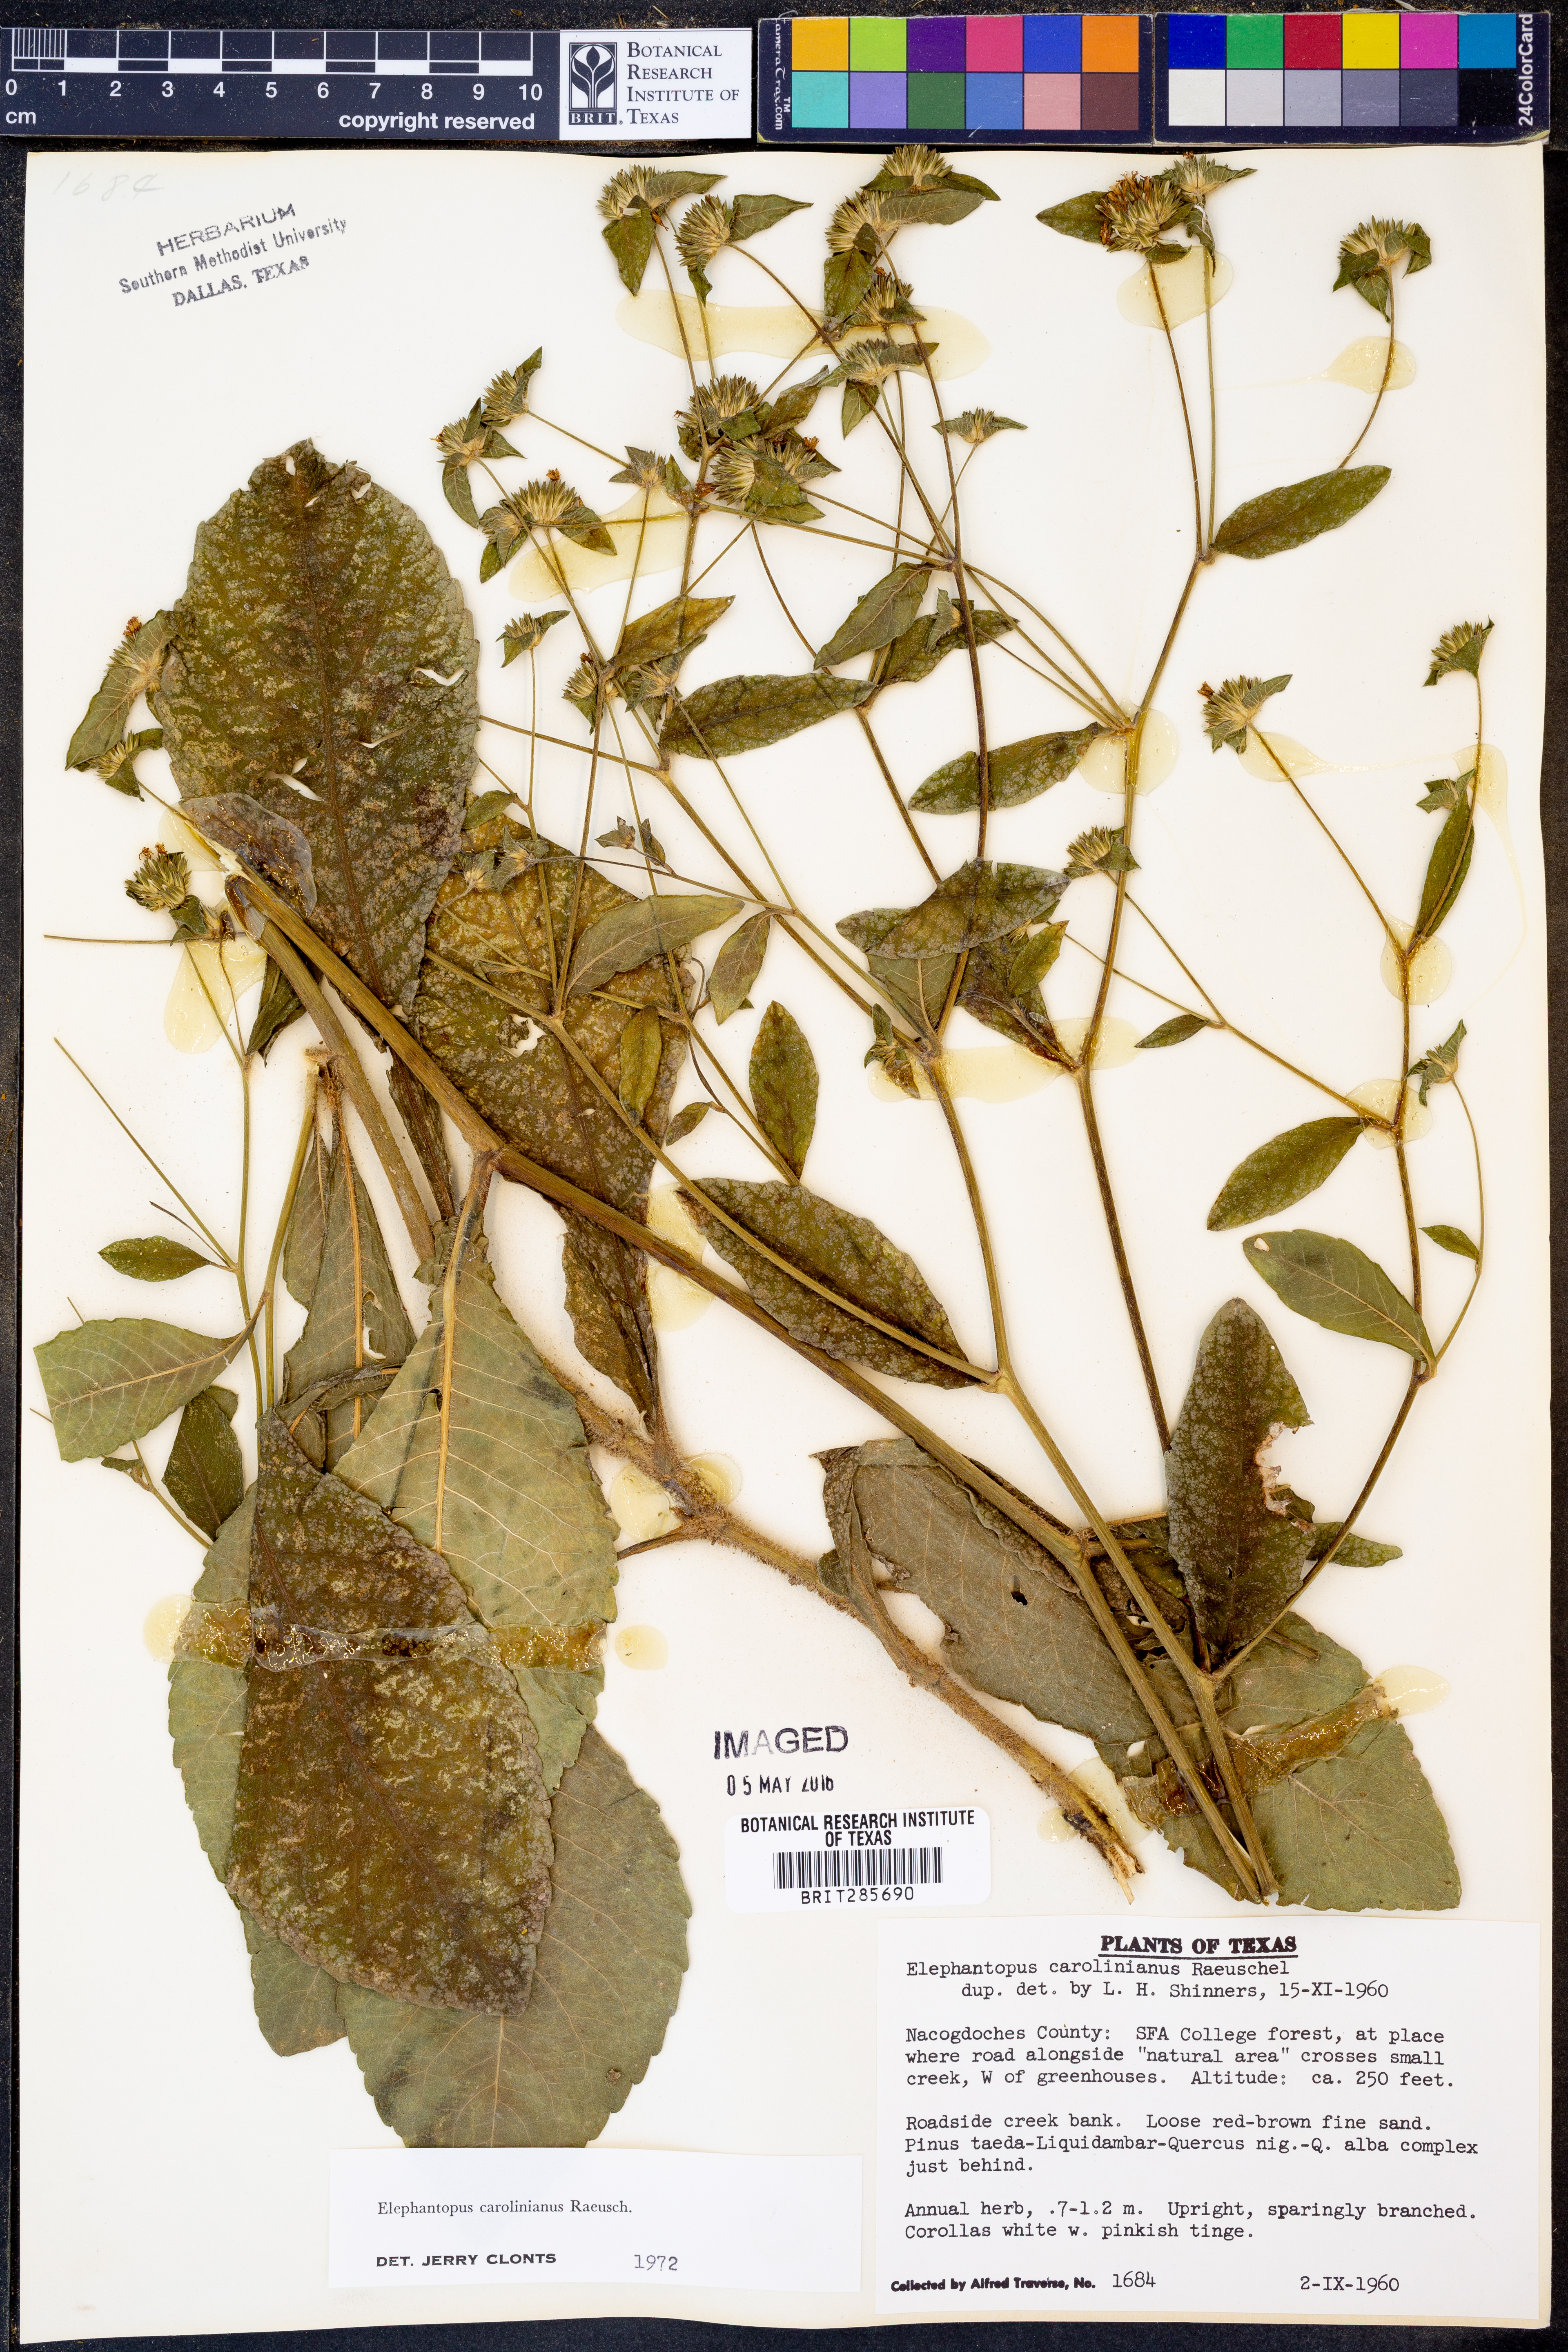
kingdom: Plantae
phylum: Tracheophyta
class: Magnoliopsida
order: Asterales
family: Asteraceae
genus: Elephantopus
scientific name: Elephantopus carolinianus
